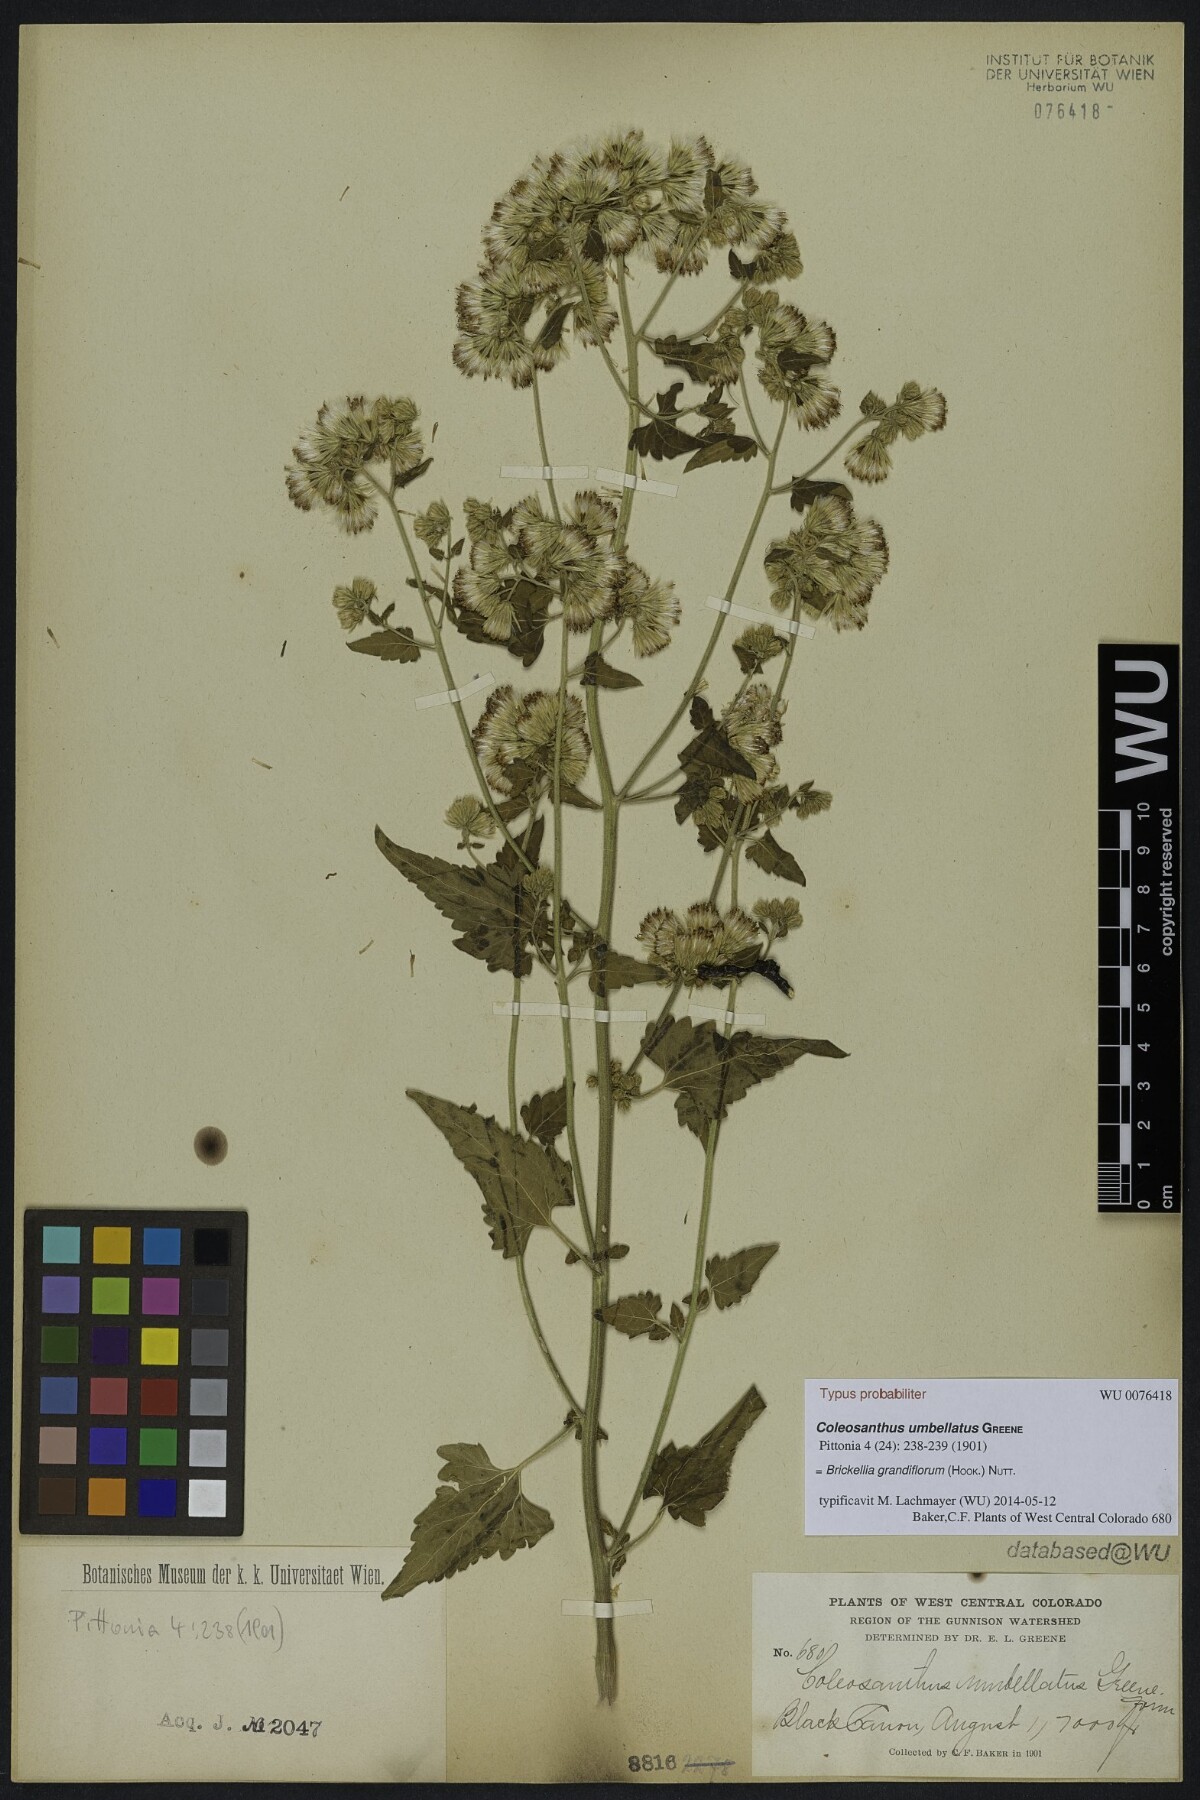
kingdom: Plantae
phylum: Tracheophyta
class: Magnoliopsida
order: Asterales
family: Asteraceae
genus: Brickellia
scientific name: Brickellia grandiflora
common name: Large-flowered brickellia
